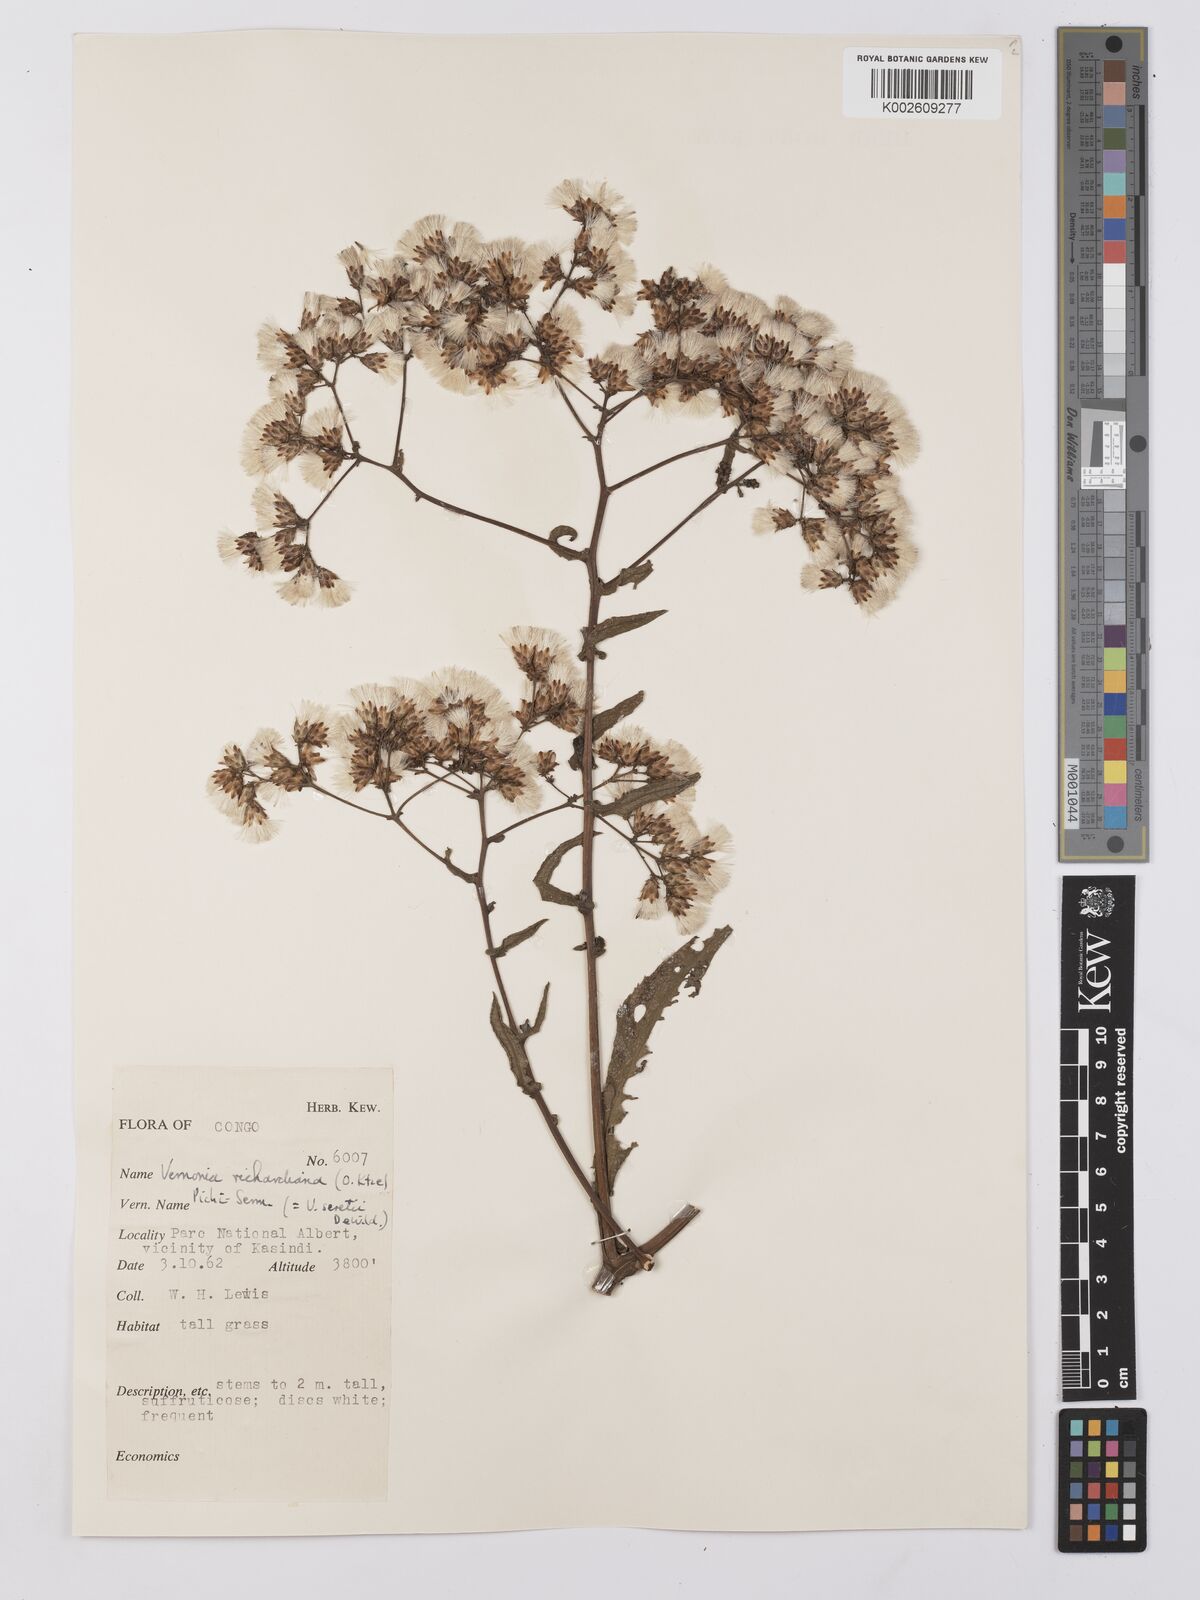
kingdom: Plantae
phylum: Tracheophyta
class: Magnoliopsida
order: Asterales
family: Asteraceae
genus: Gymnanthemum
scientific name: Gymnanthemum theophrastifolium
